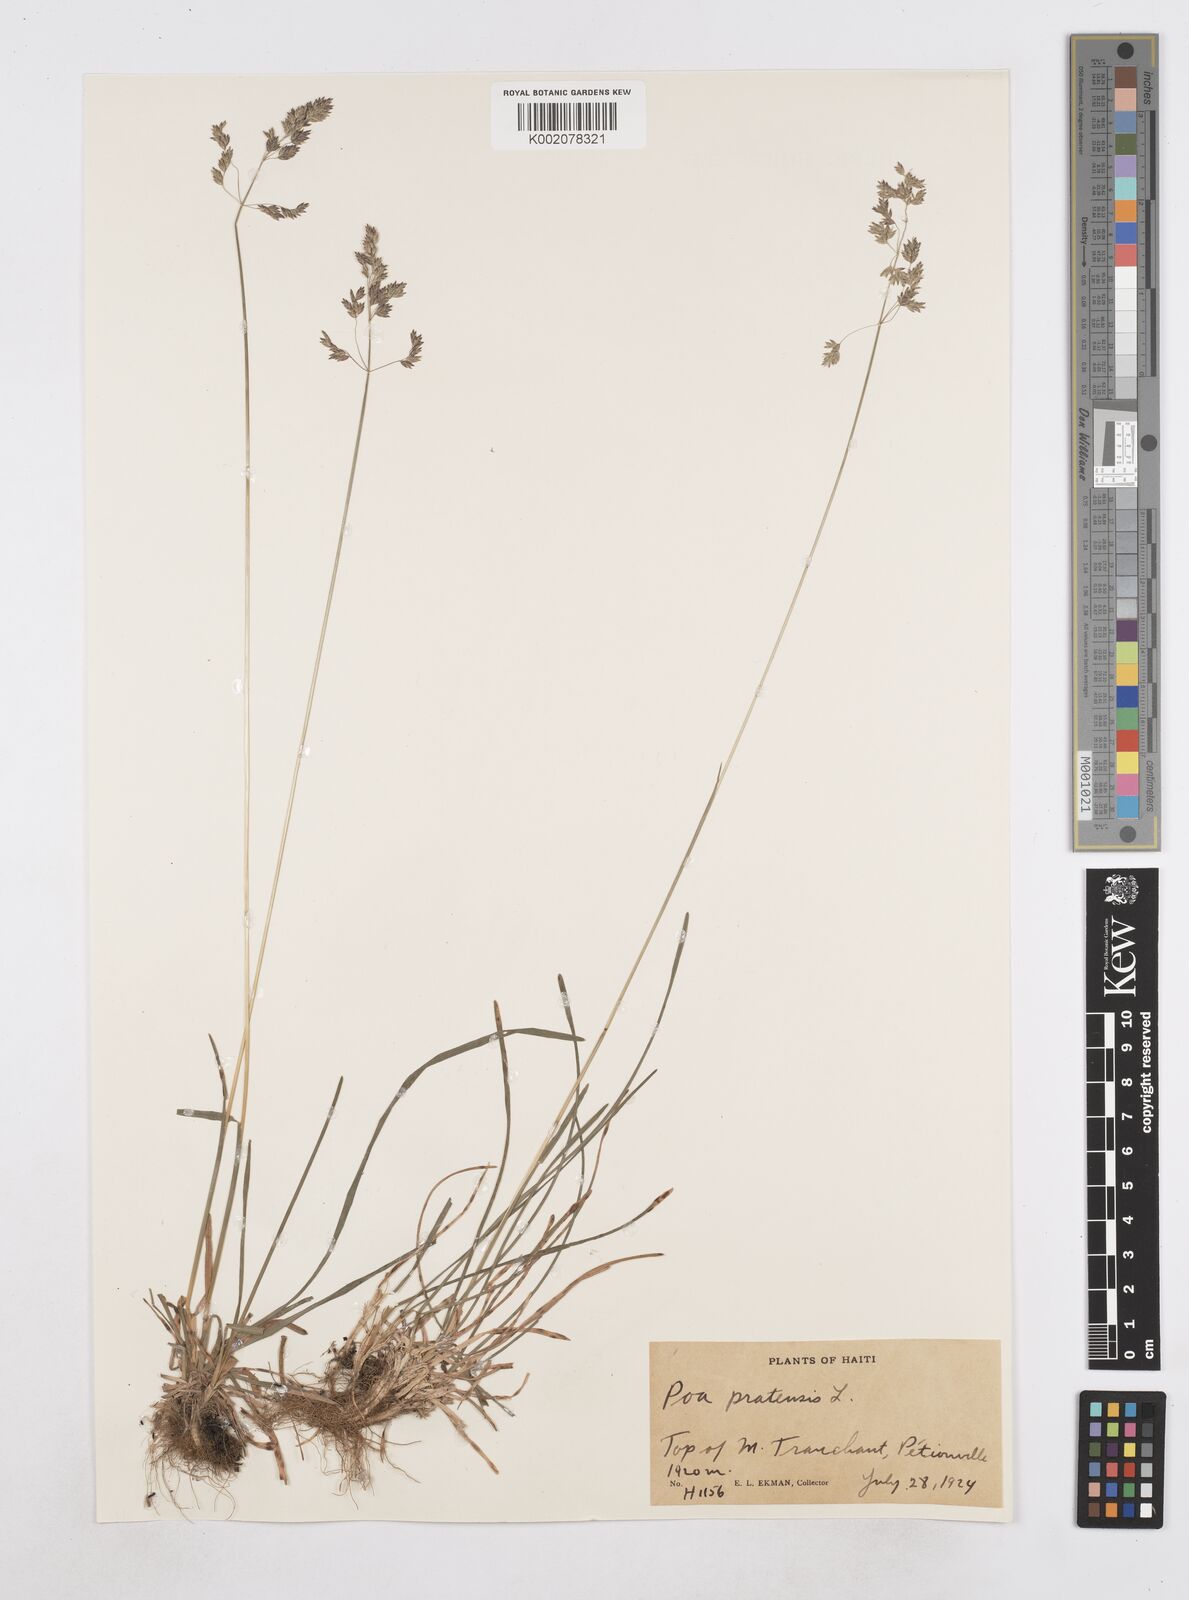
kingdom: Plantae
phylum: Tracheophyta
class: Liliopsida
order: Poales
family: Poaceae
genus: Poa
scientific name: Poa pratensis
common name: Kentucky bluegrass
